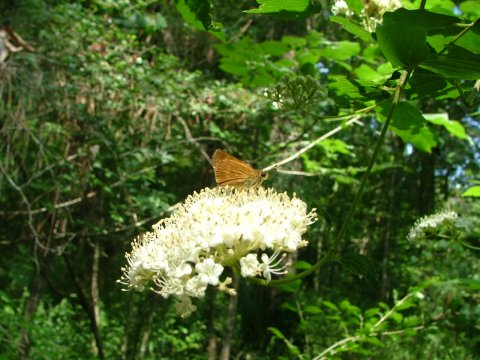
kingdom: Animalia
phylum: Arthropoda
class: Insecta
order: Lepidoptera
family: Hesperiidae
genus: Wallengrenia
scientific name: Wallengrenia otho
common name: Southern Broken-Dash
